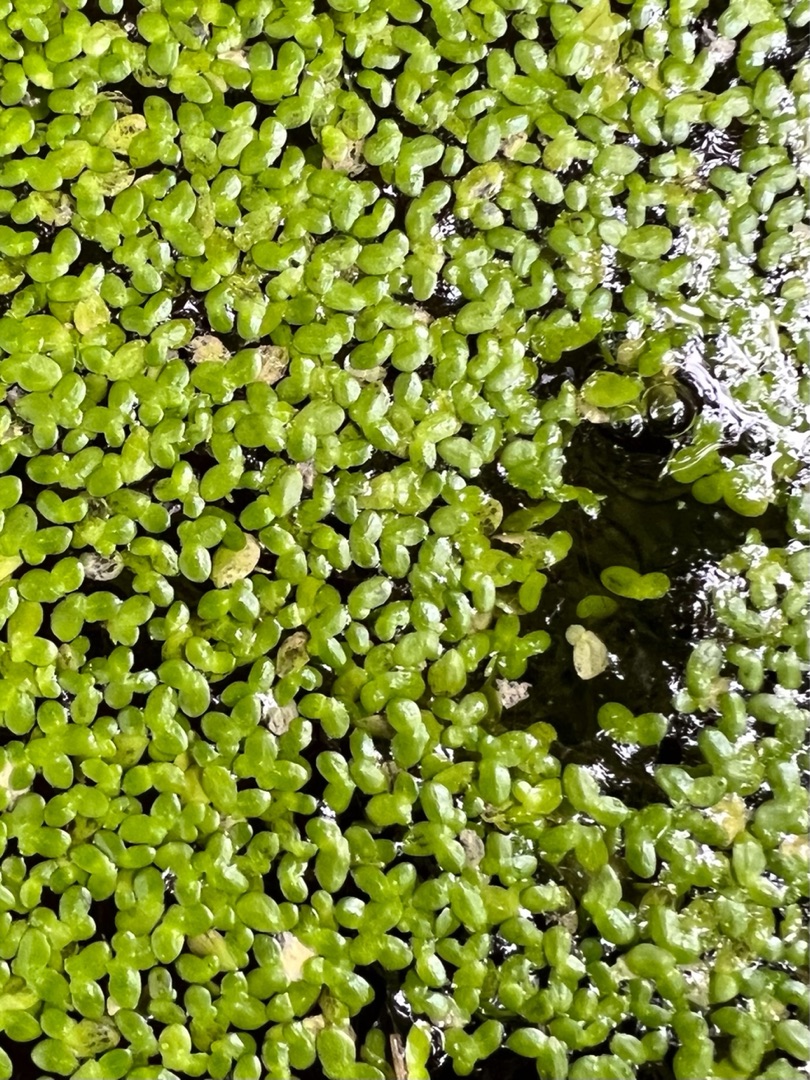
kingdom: Plantae
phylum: Tracheophyta
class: Liliopsida
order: Alismatales
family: Araceae
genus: Lemna
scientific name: Lemna minor
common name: Liden andemad
